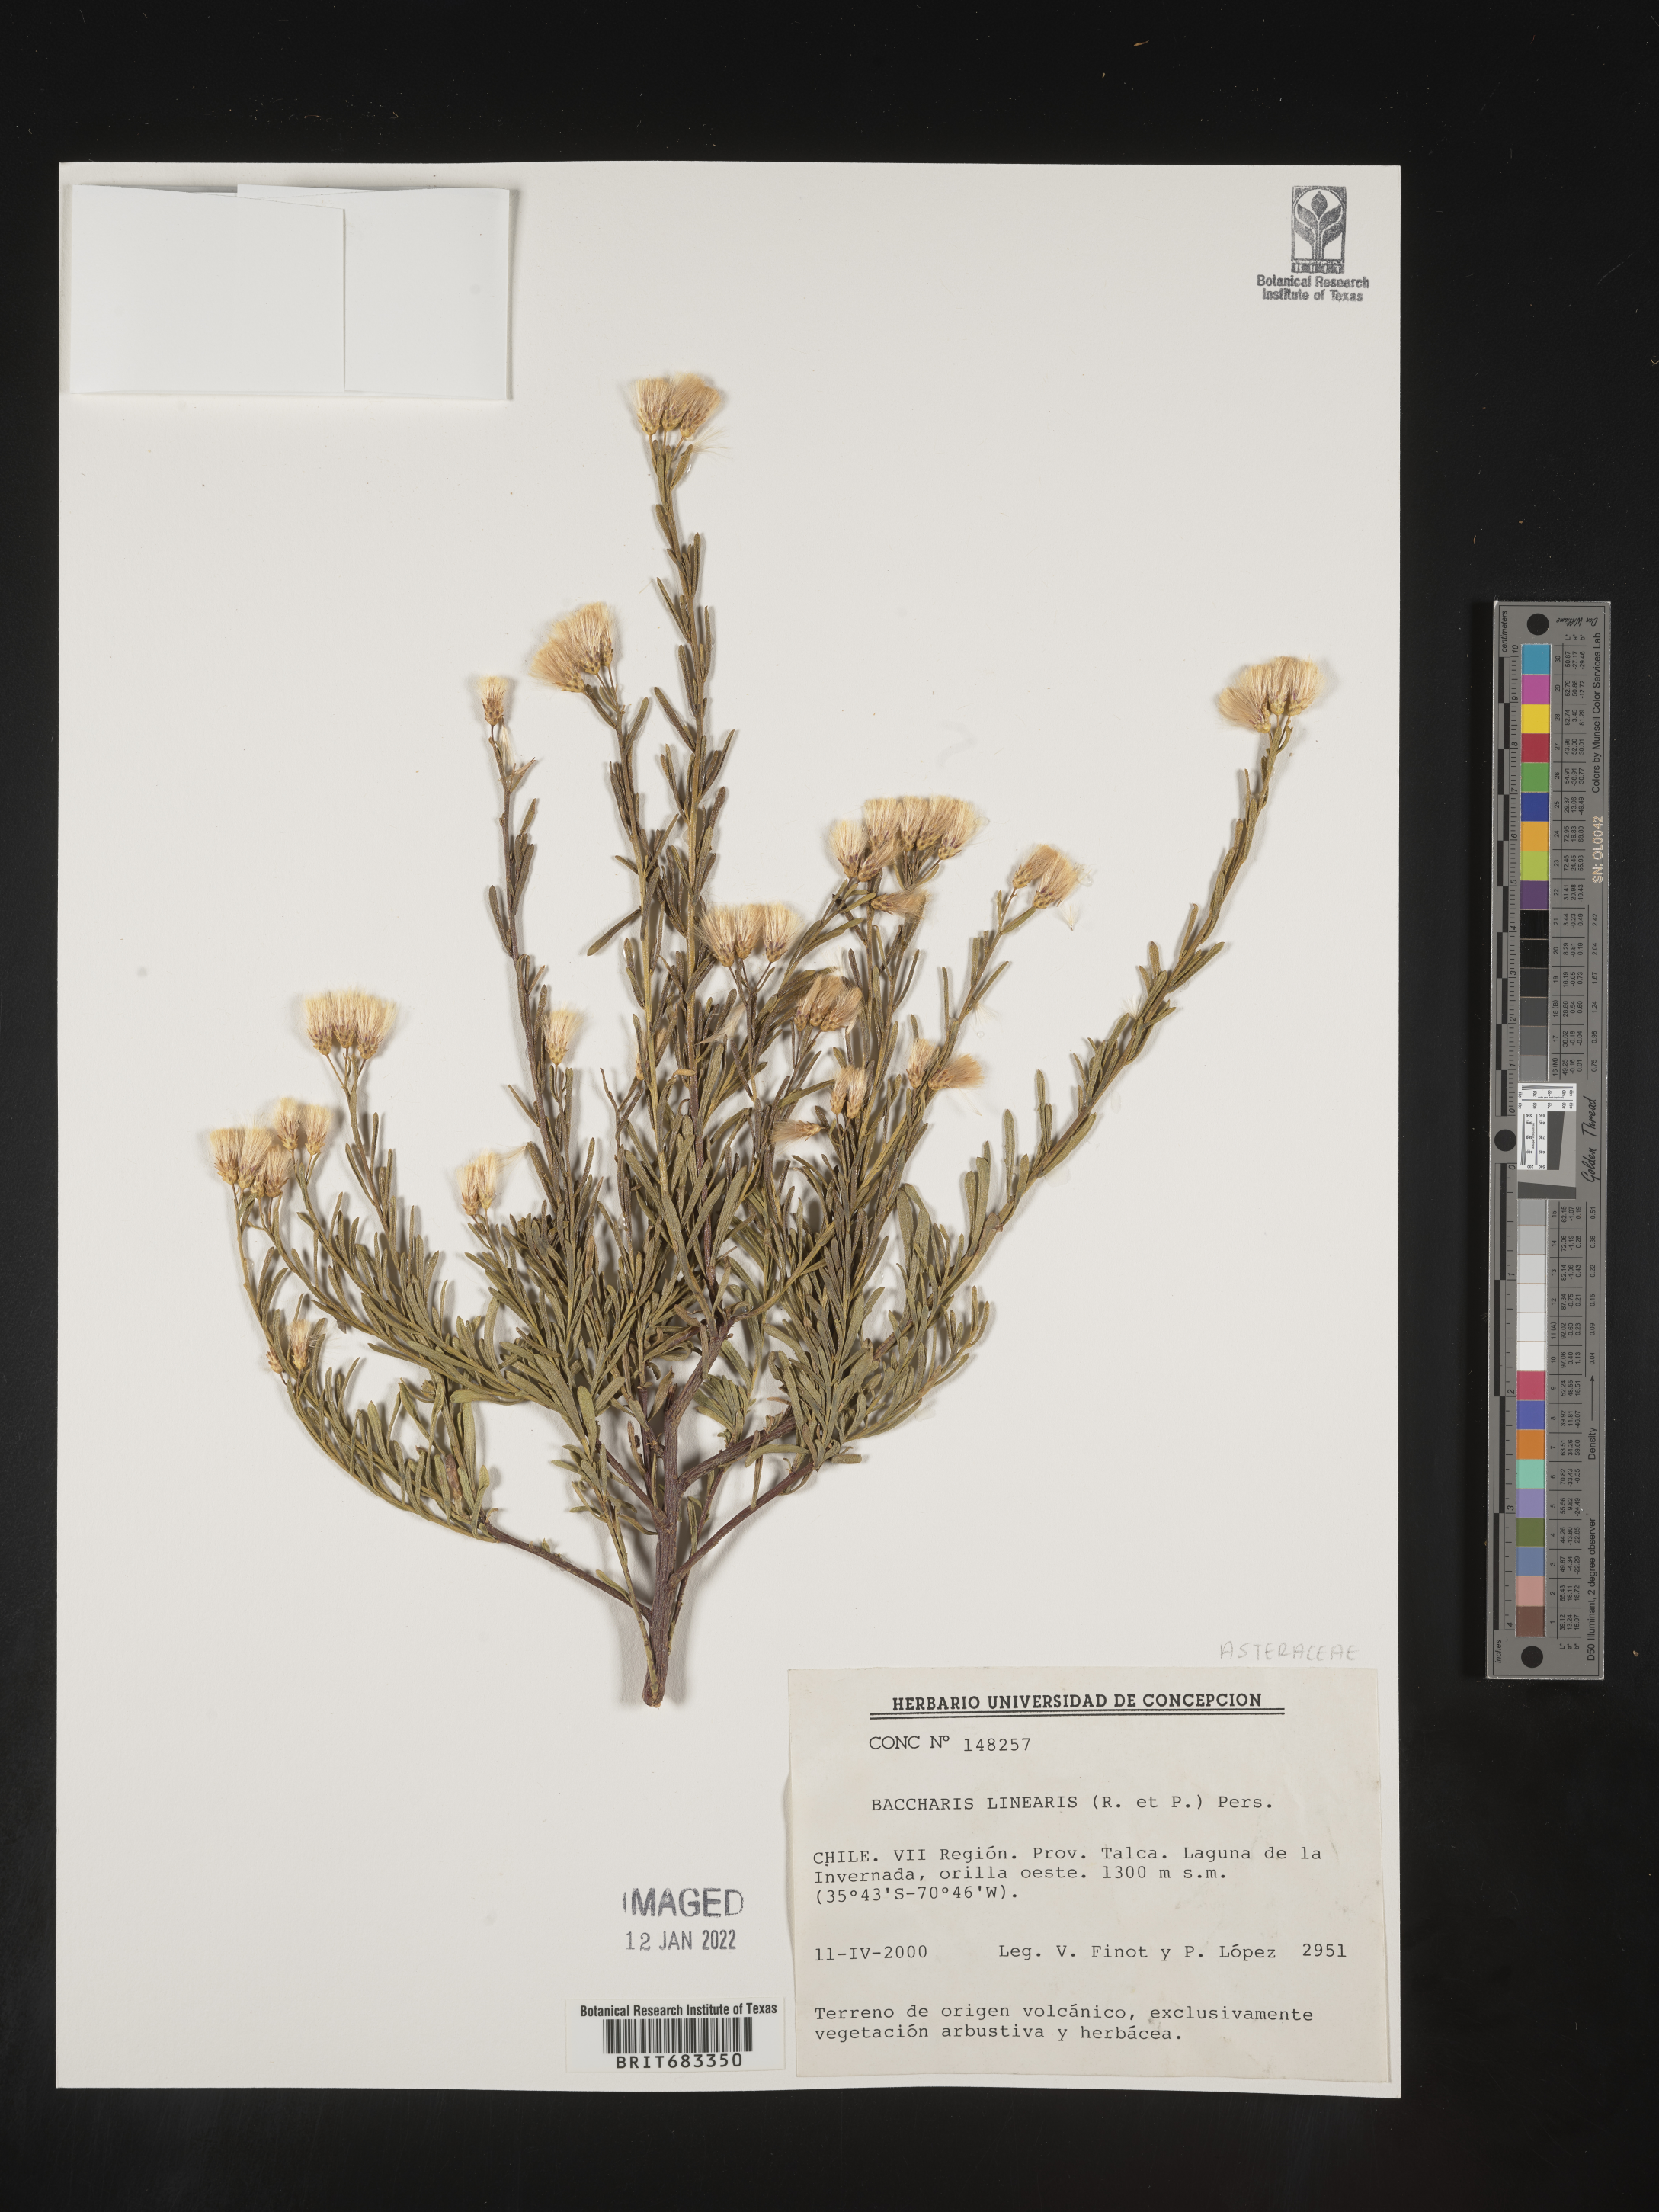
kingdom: Plantae
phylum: Tracheophyta
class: Magnoliopsida
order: Asterales
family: Asteraceae
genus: Baccharis
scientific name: Baccharis
